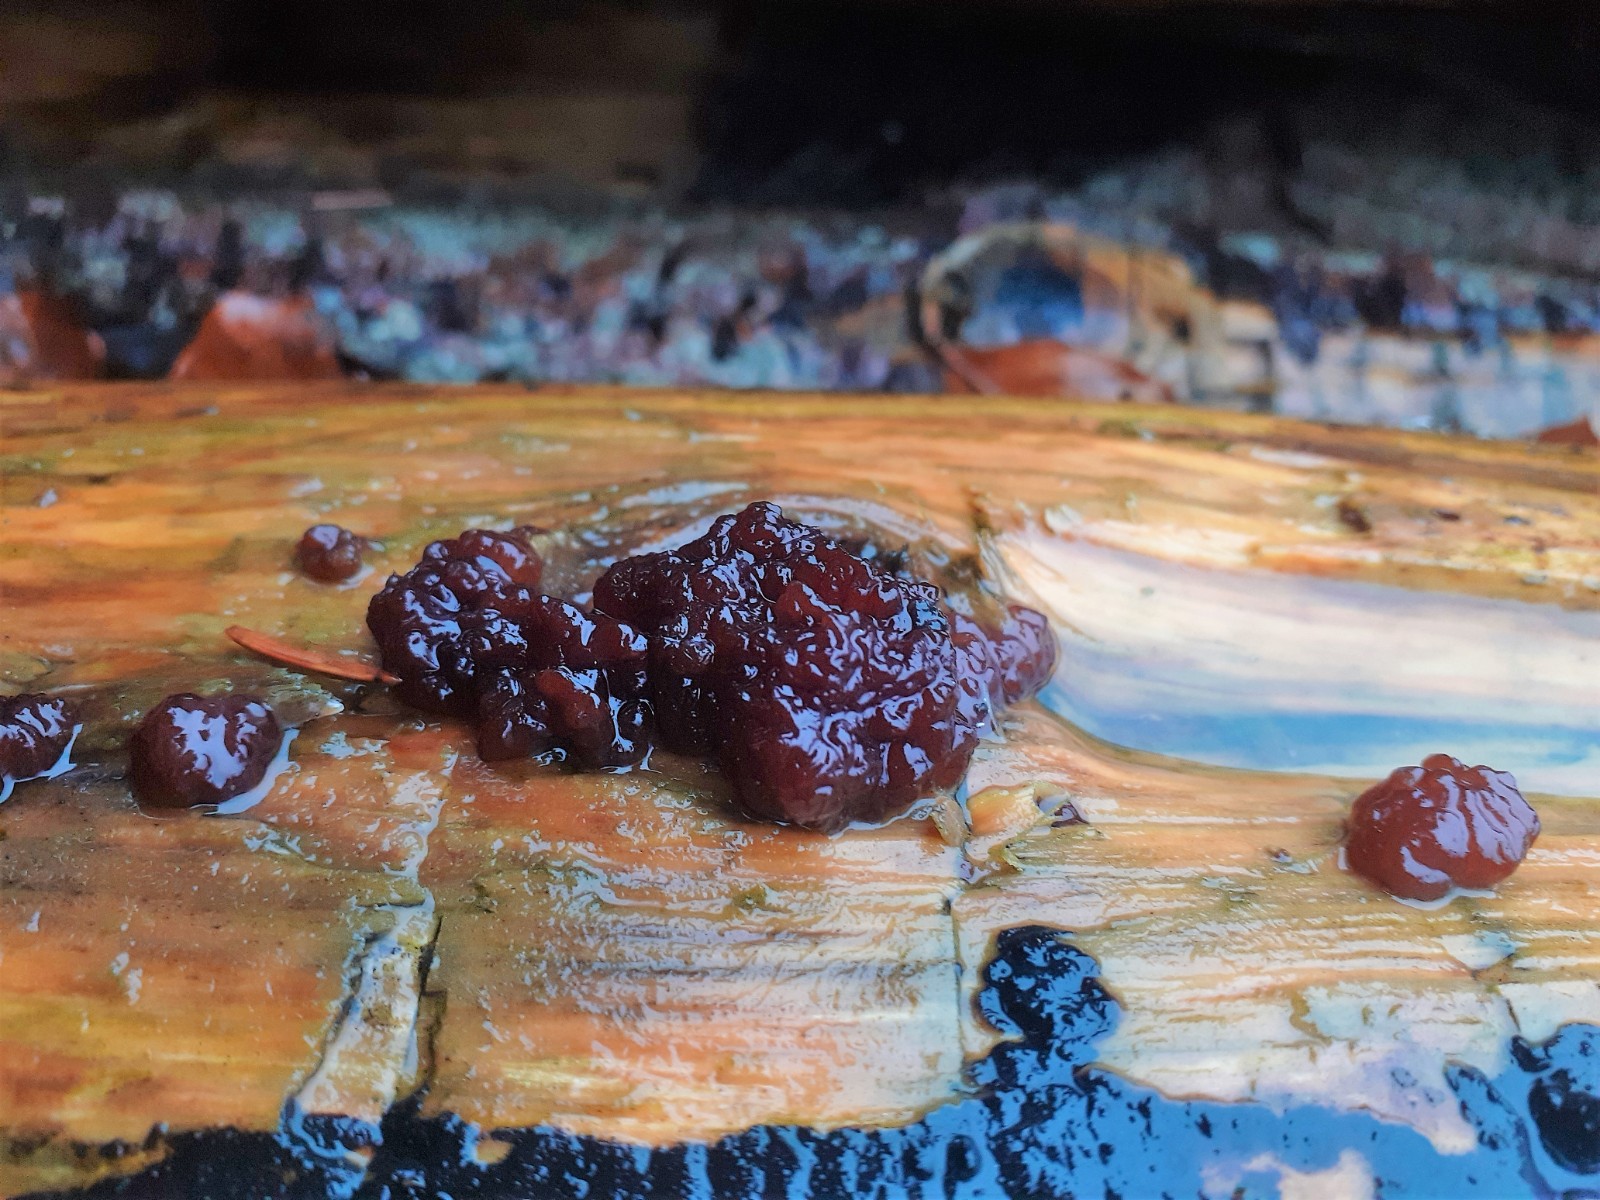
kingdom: Fungi
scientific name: Fungi
